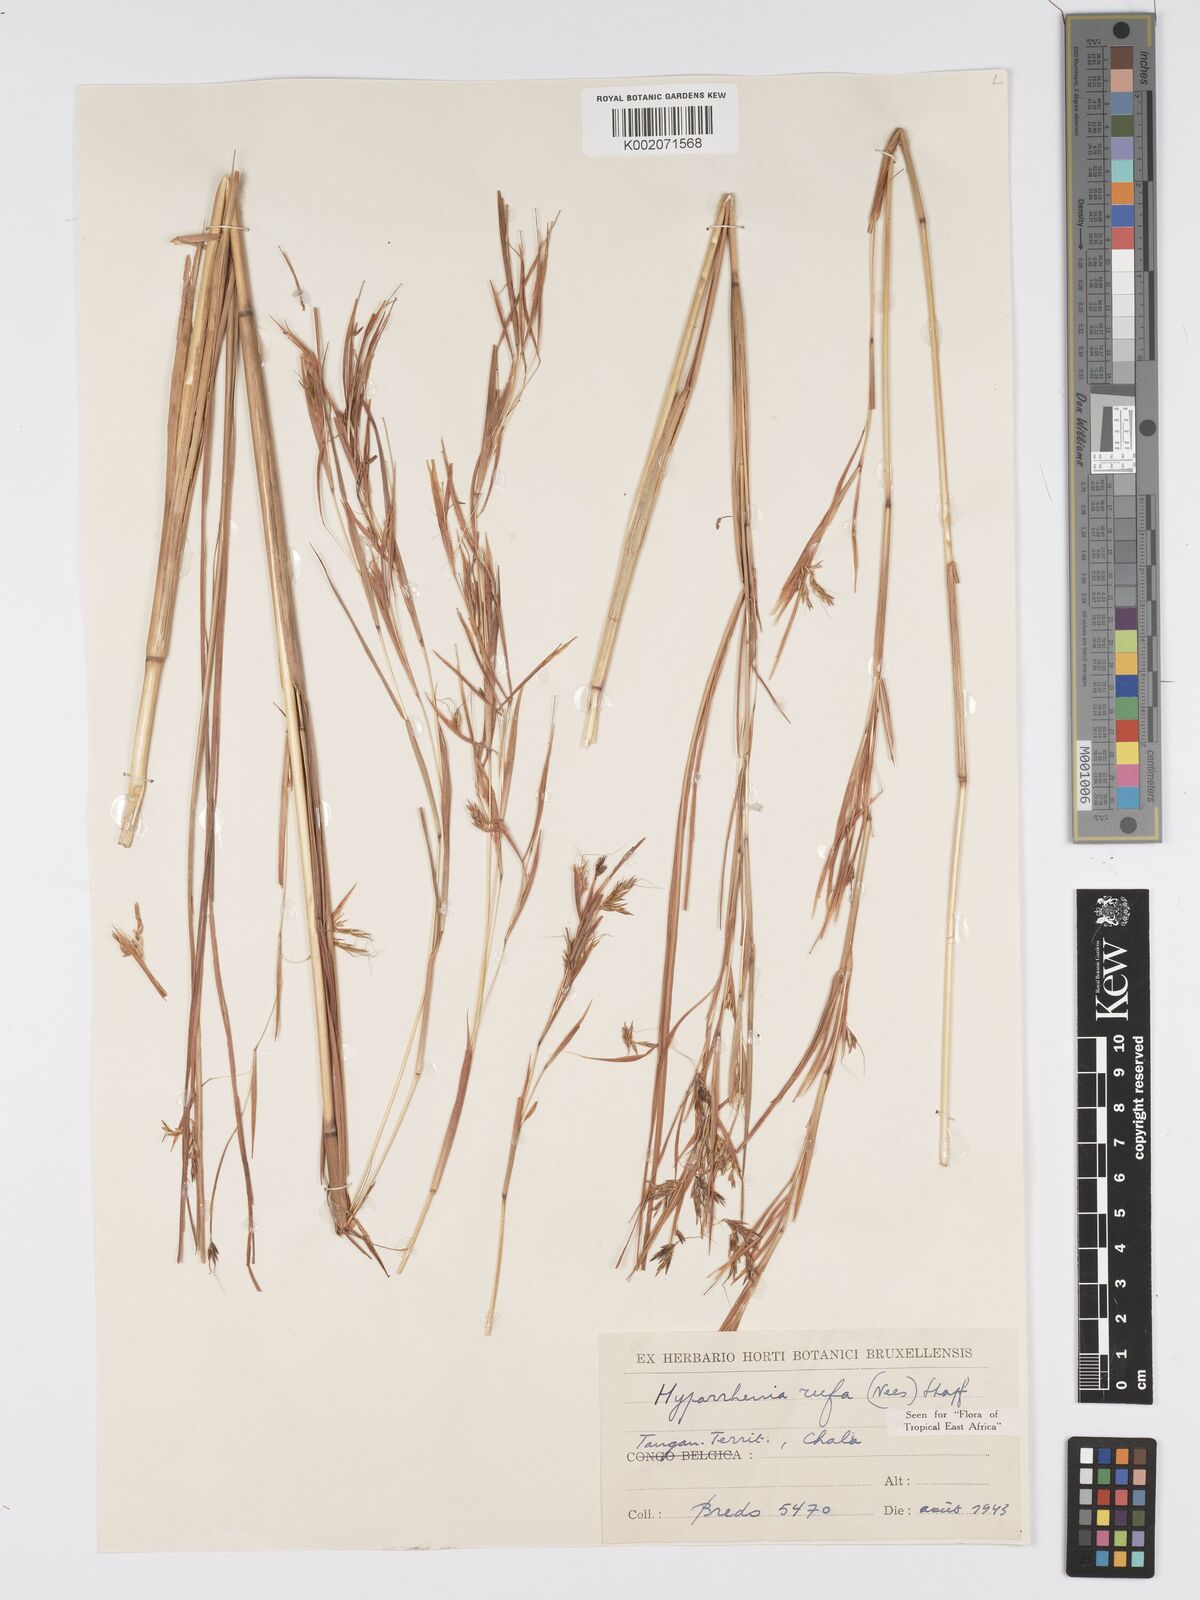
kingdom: Plantae
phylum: Tracheophyta
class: Liliopsida
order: Poales
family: Poaceae
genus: Hyparrhenia
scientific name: Hyparrhenia rufa
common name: Jaraguagrass
